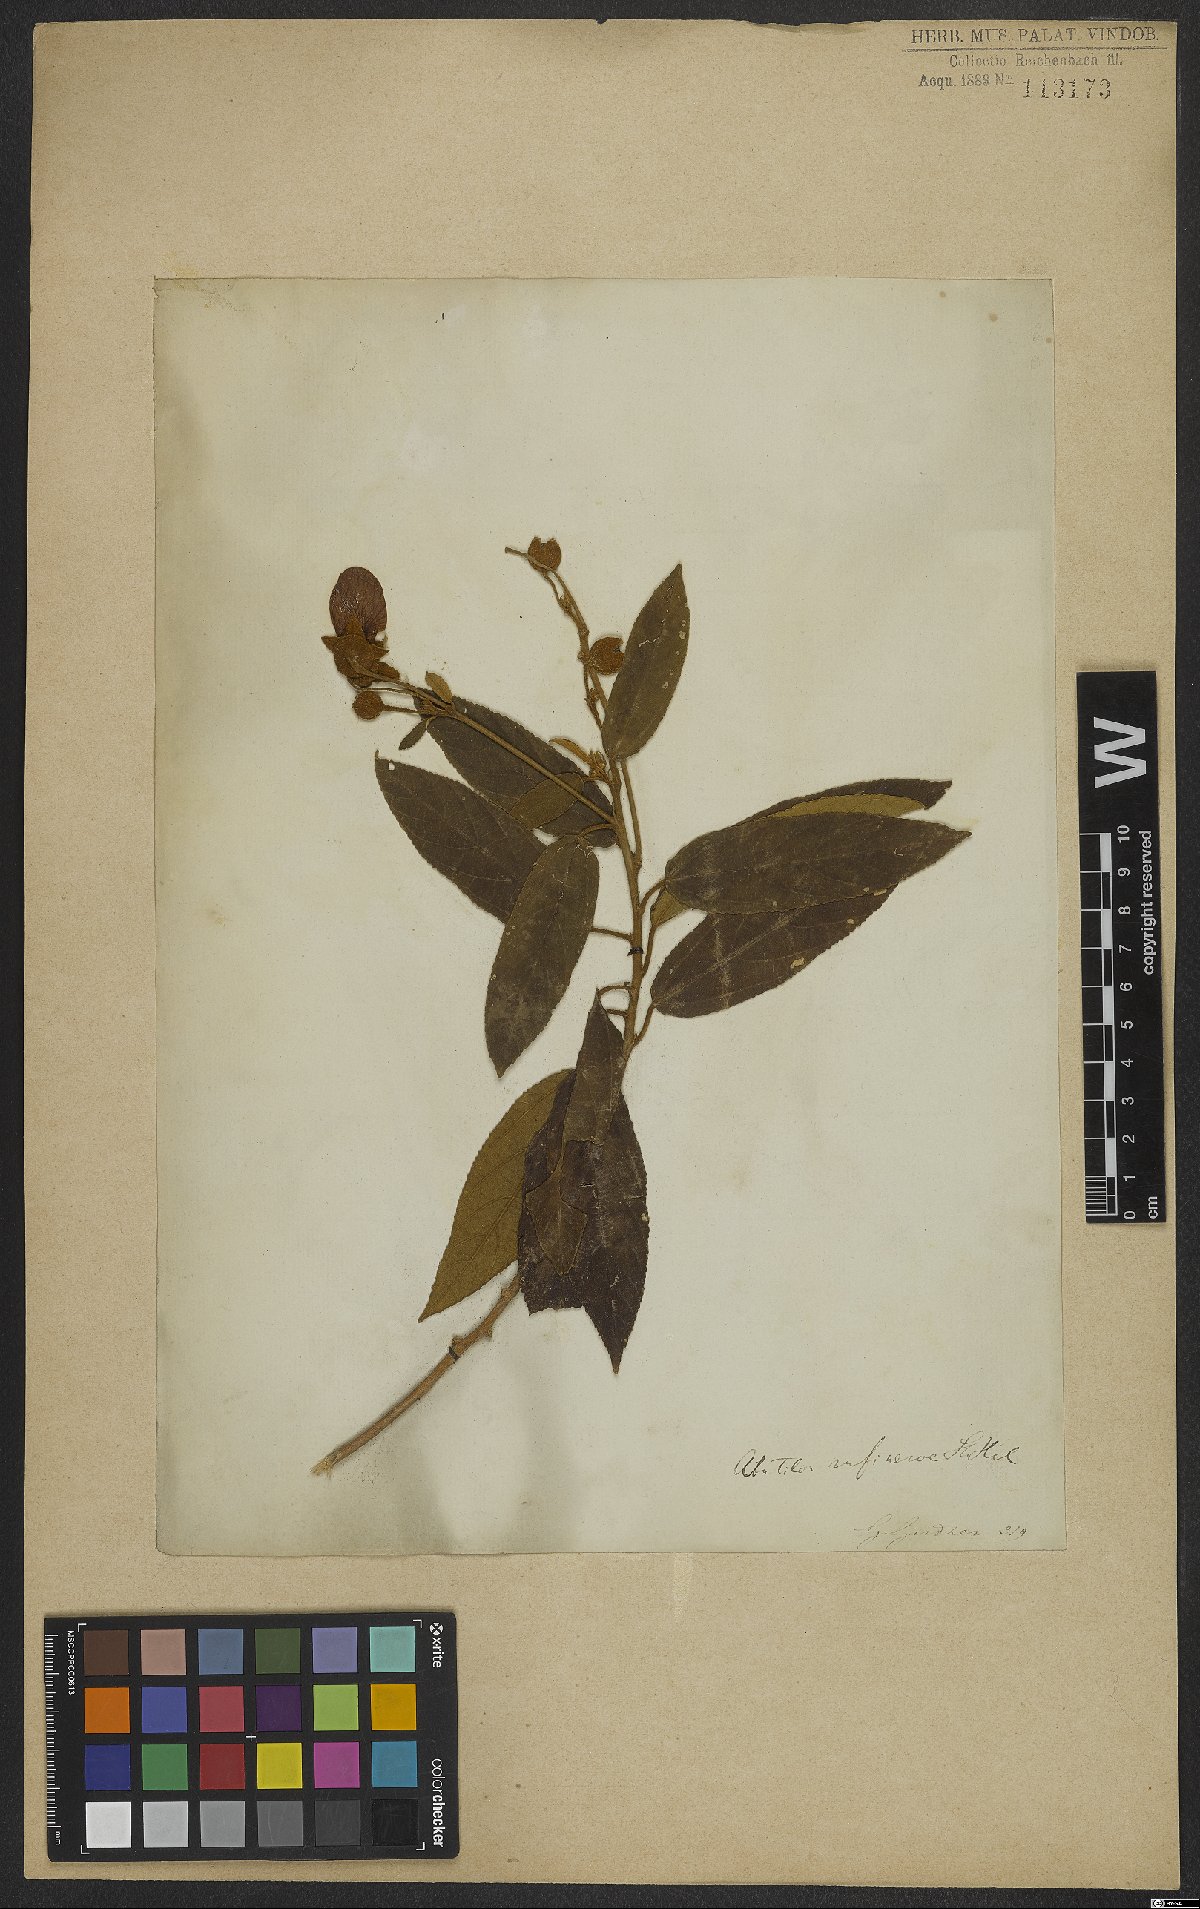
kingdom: Plantae
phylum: Tracheophyta
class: Magnoliopsida
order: Malvales
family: Malvaceae
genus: Callianthe
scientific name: Callianthe rufinerva
